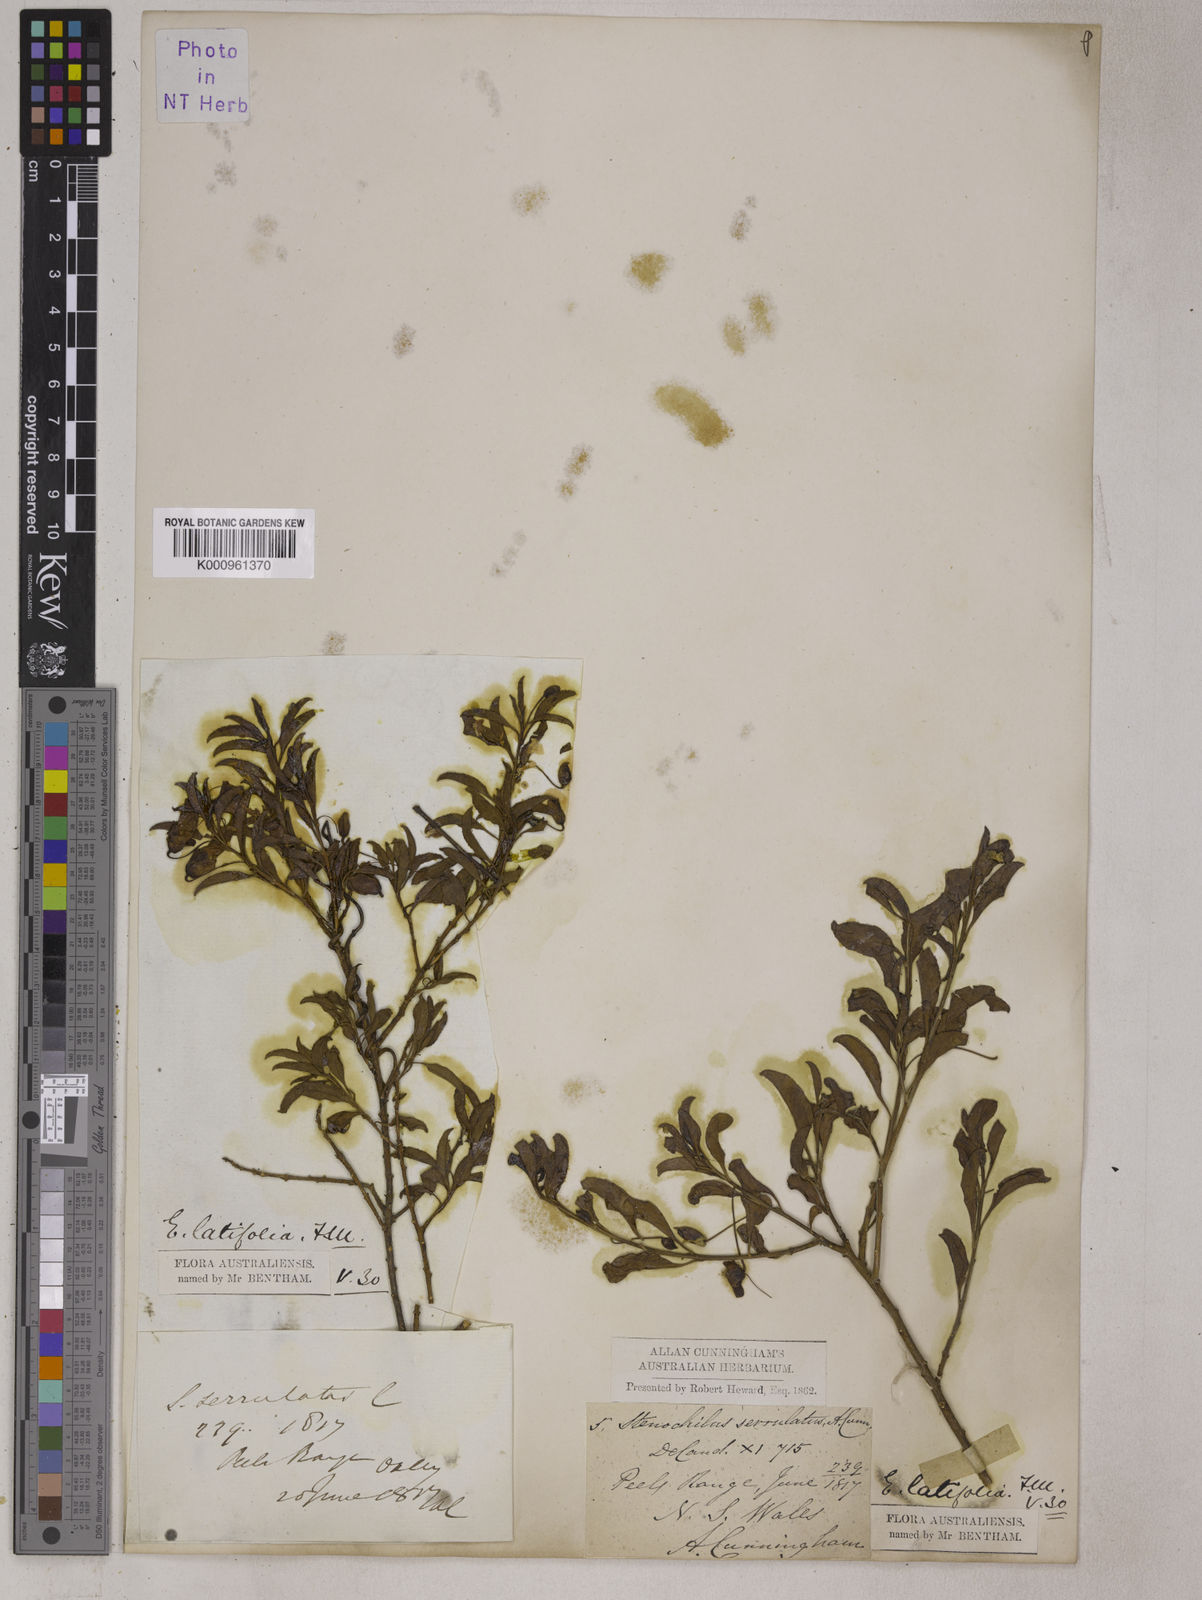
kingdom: Plantae
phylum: Tracheophyta
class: Magnoliopsida
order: Lamiales
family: Scrophulariaceae
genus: Eremophila
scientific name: Eremophila serrulata
